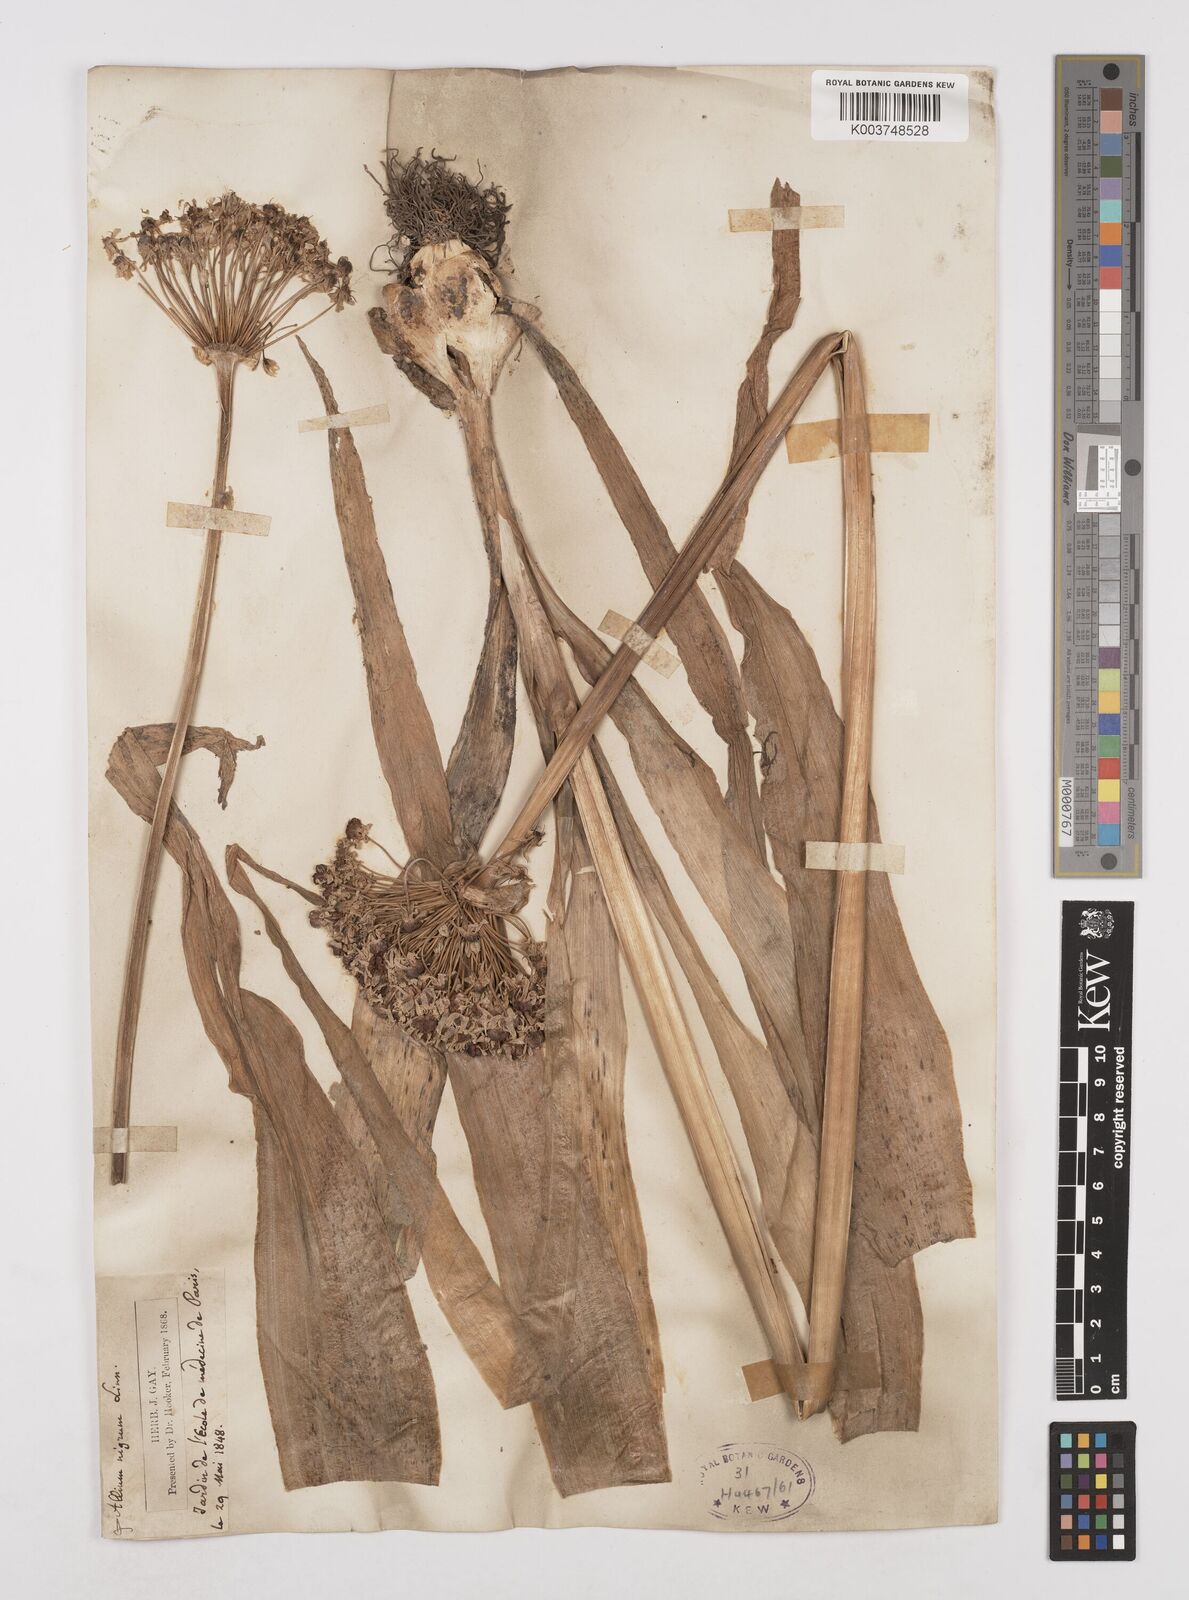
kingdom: Plantae
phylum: Tracheophyta
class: Liliopsida
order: Asparagales
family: Amaryllidaceae
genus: Allium
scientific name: Allium nigrum
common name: Black garlic
